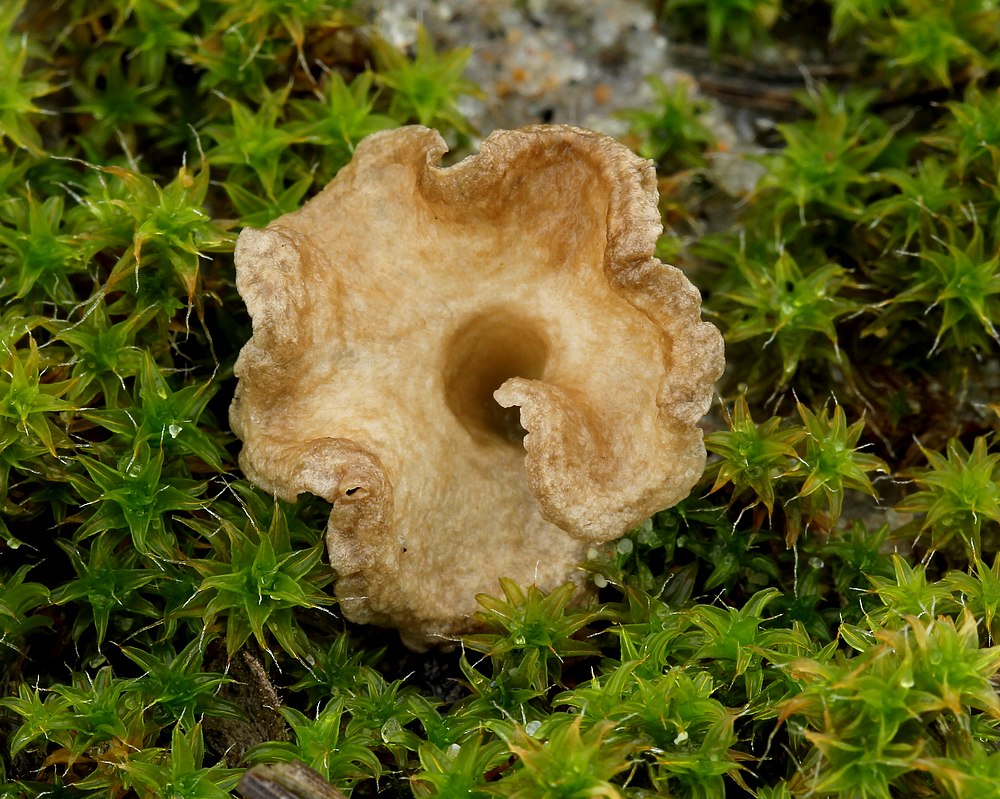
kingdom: Fungi
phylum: Basidiomycota
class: Agaricomycetes
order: Agaricales
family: Hygrophoraceae
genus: Arrhenia
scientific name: Arrhenia spathulata
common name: skæv fontænehat
